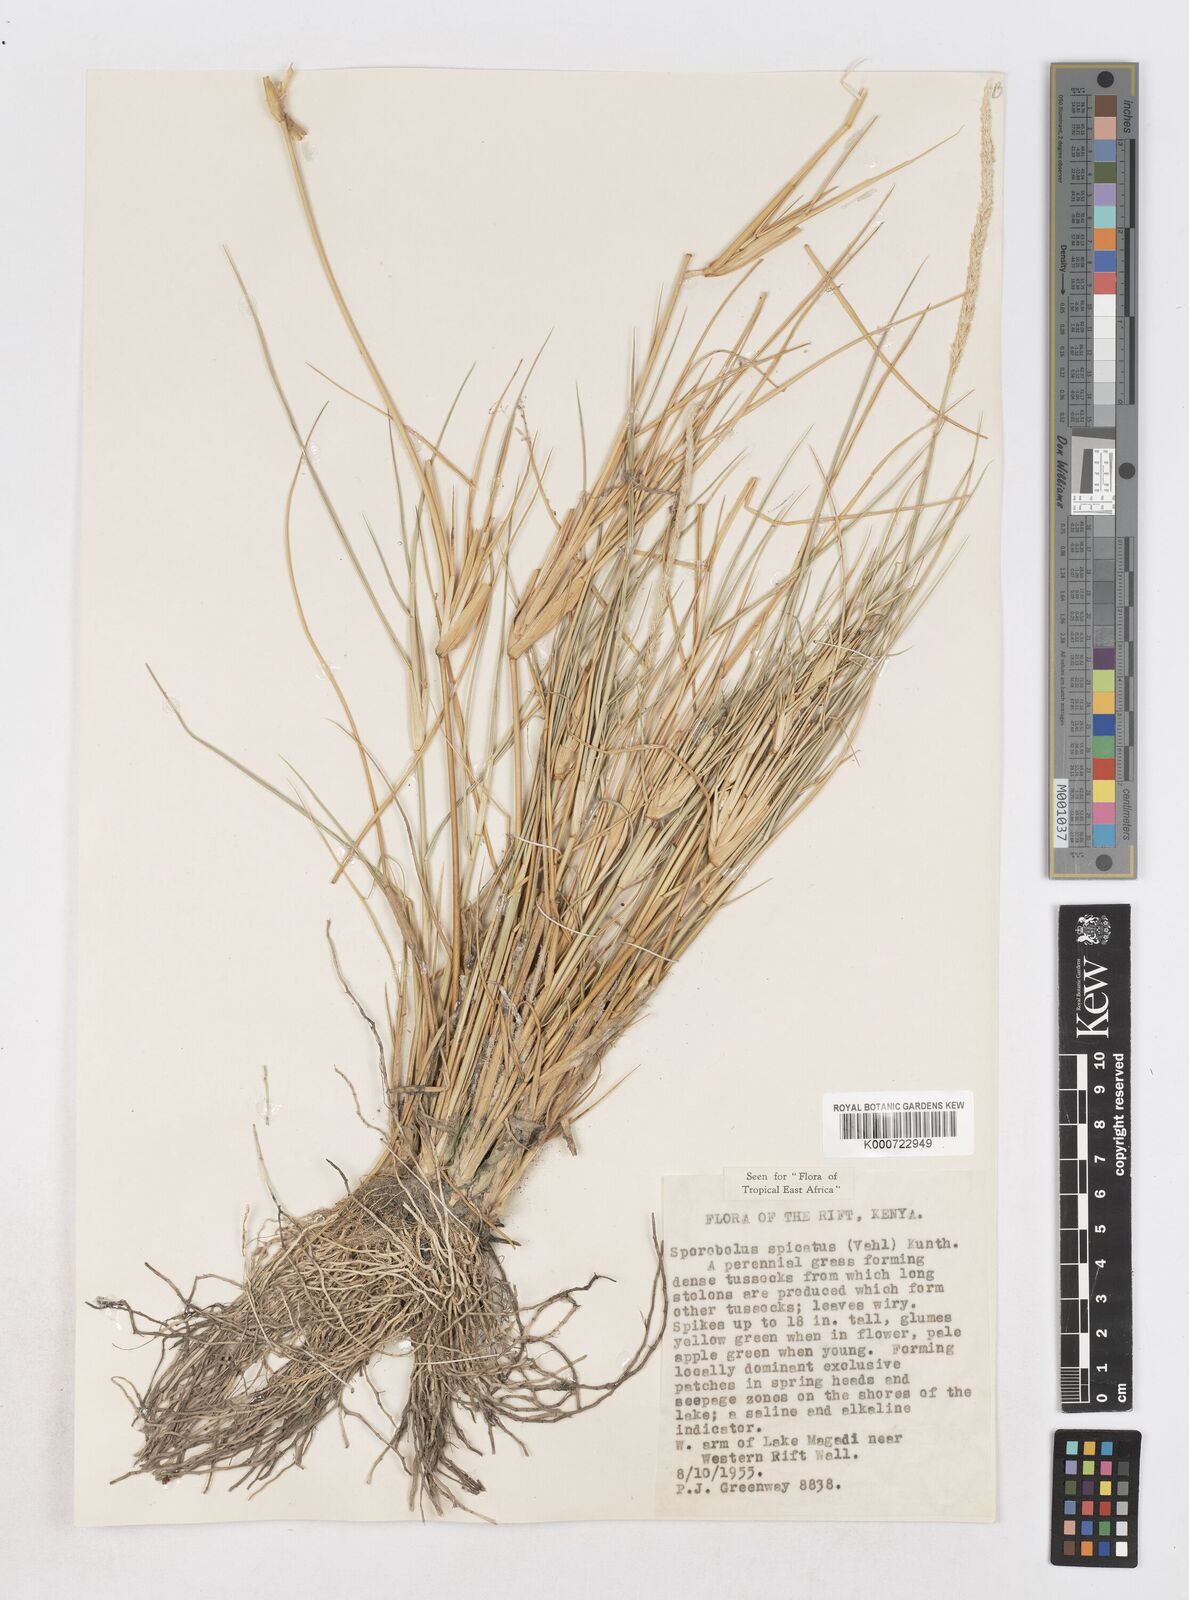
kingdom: Plantae
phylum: Tracheophyta
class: Liliopsida
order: Poales
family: Poaceae
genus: Sporobolus
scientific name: Sporobolus spicatus
